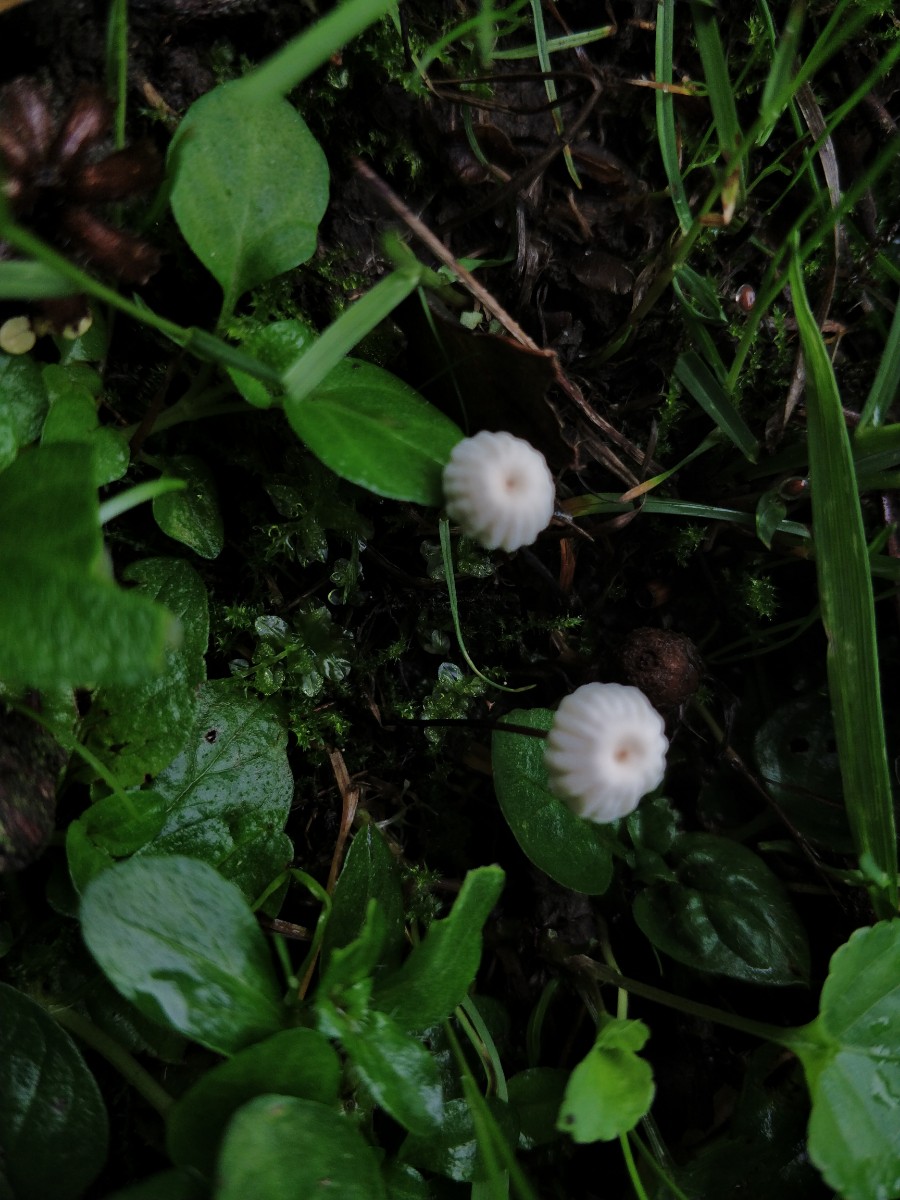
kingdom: Fungi
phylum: Basidiomycota
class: Agaricomycetes
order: Agaricales
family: Marasmiaceae
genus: Marasmius
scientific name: Marasmius rotula
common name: hjul-bruskhat
